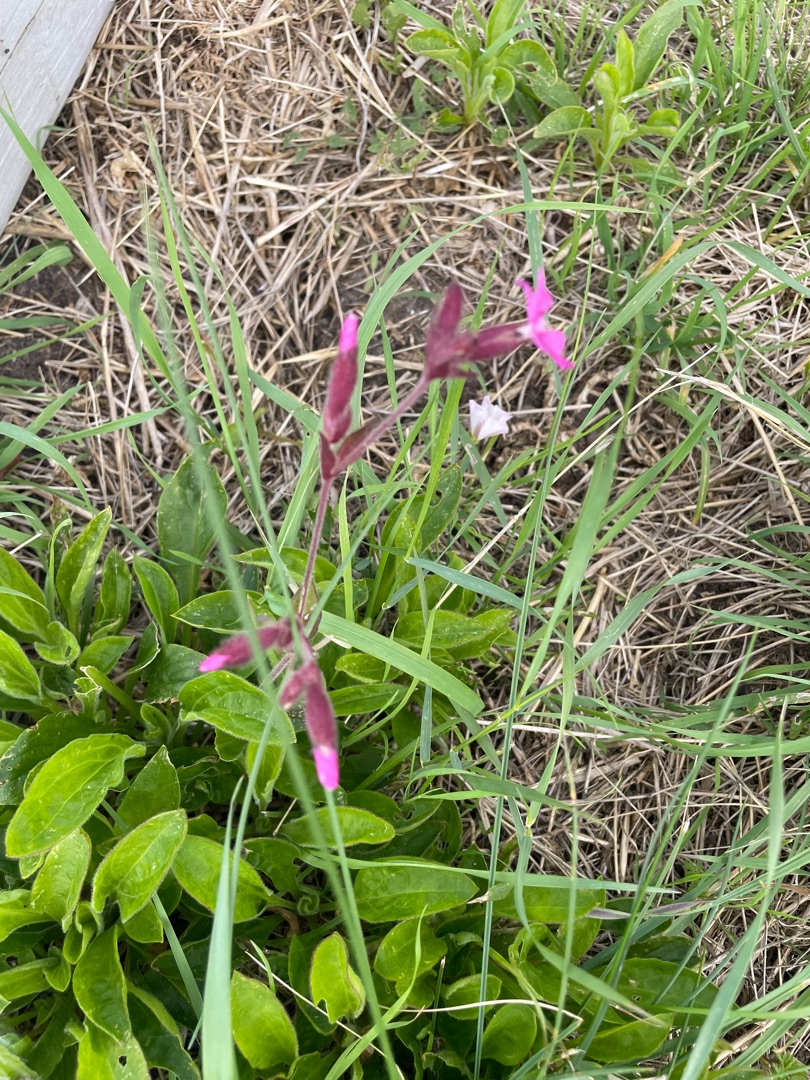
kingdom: Plantae
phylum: Tracheophyta
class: Magnoliopsida
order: Caryophyllales
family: Caryophyllaceae
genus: Silene
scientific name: Silene dioica
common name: Dagpragtstjerne
